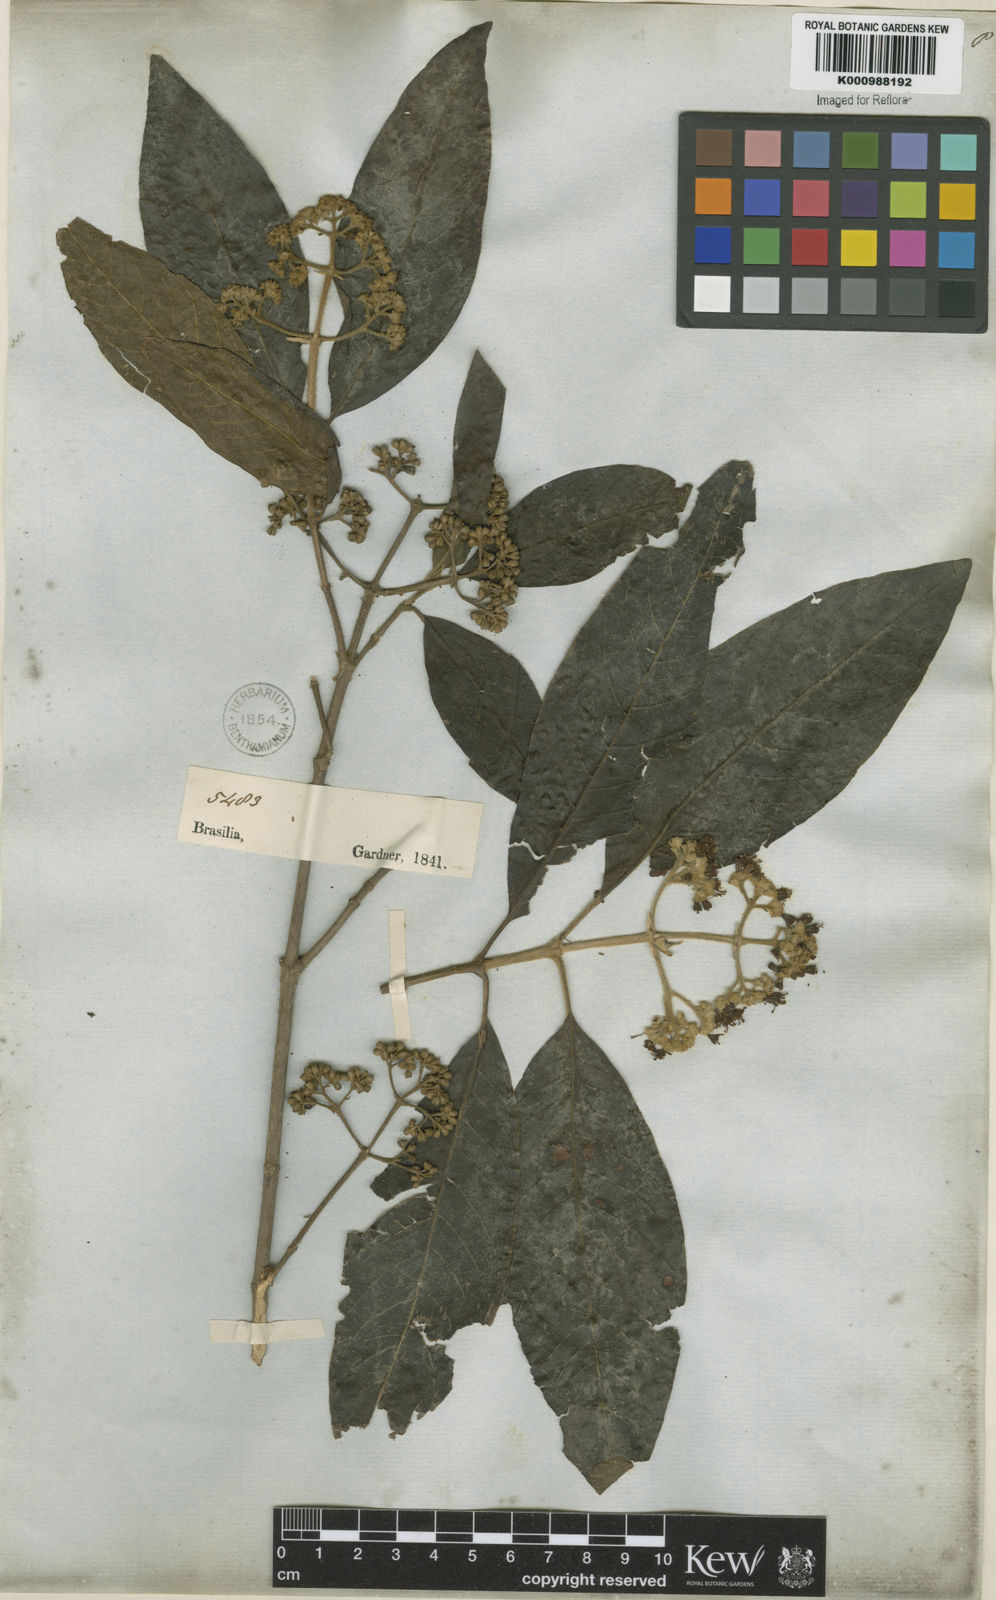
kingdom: Plantae
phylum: Tracheophyta
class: Magnoliopsida
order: Gentianales
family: Rubiaceae
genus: Bathysa
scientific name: Bathysa
